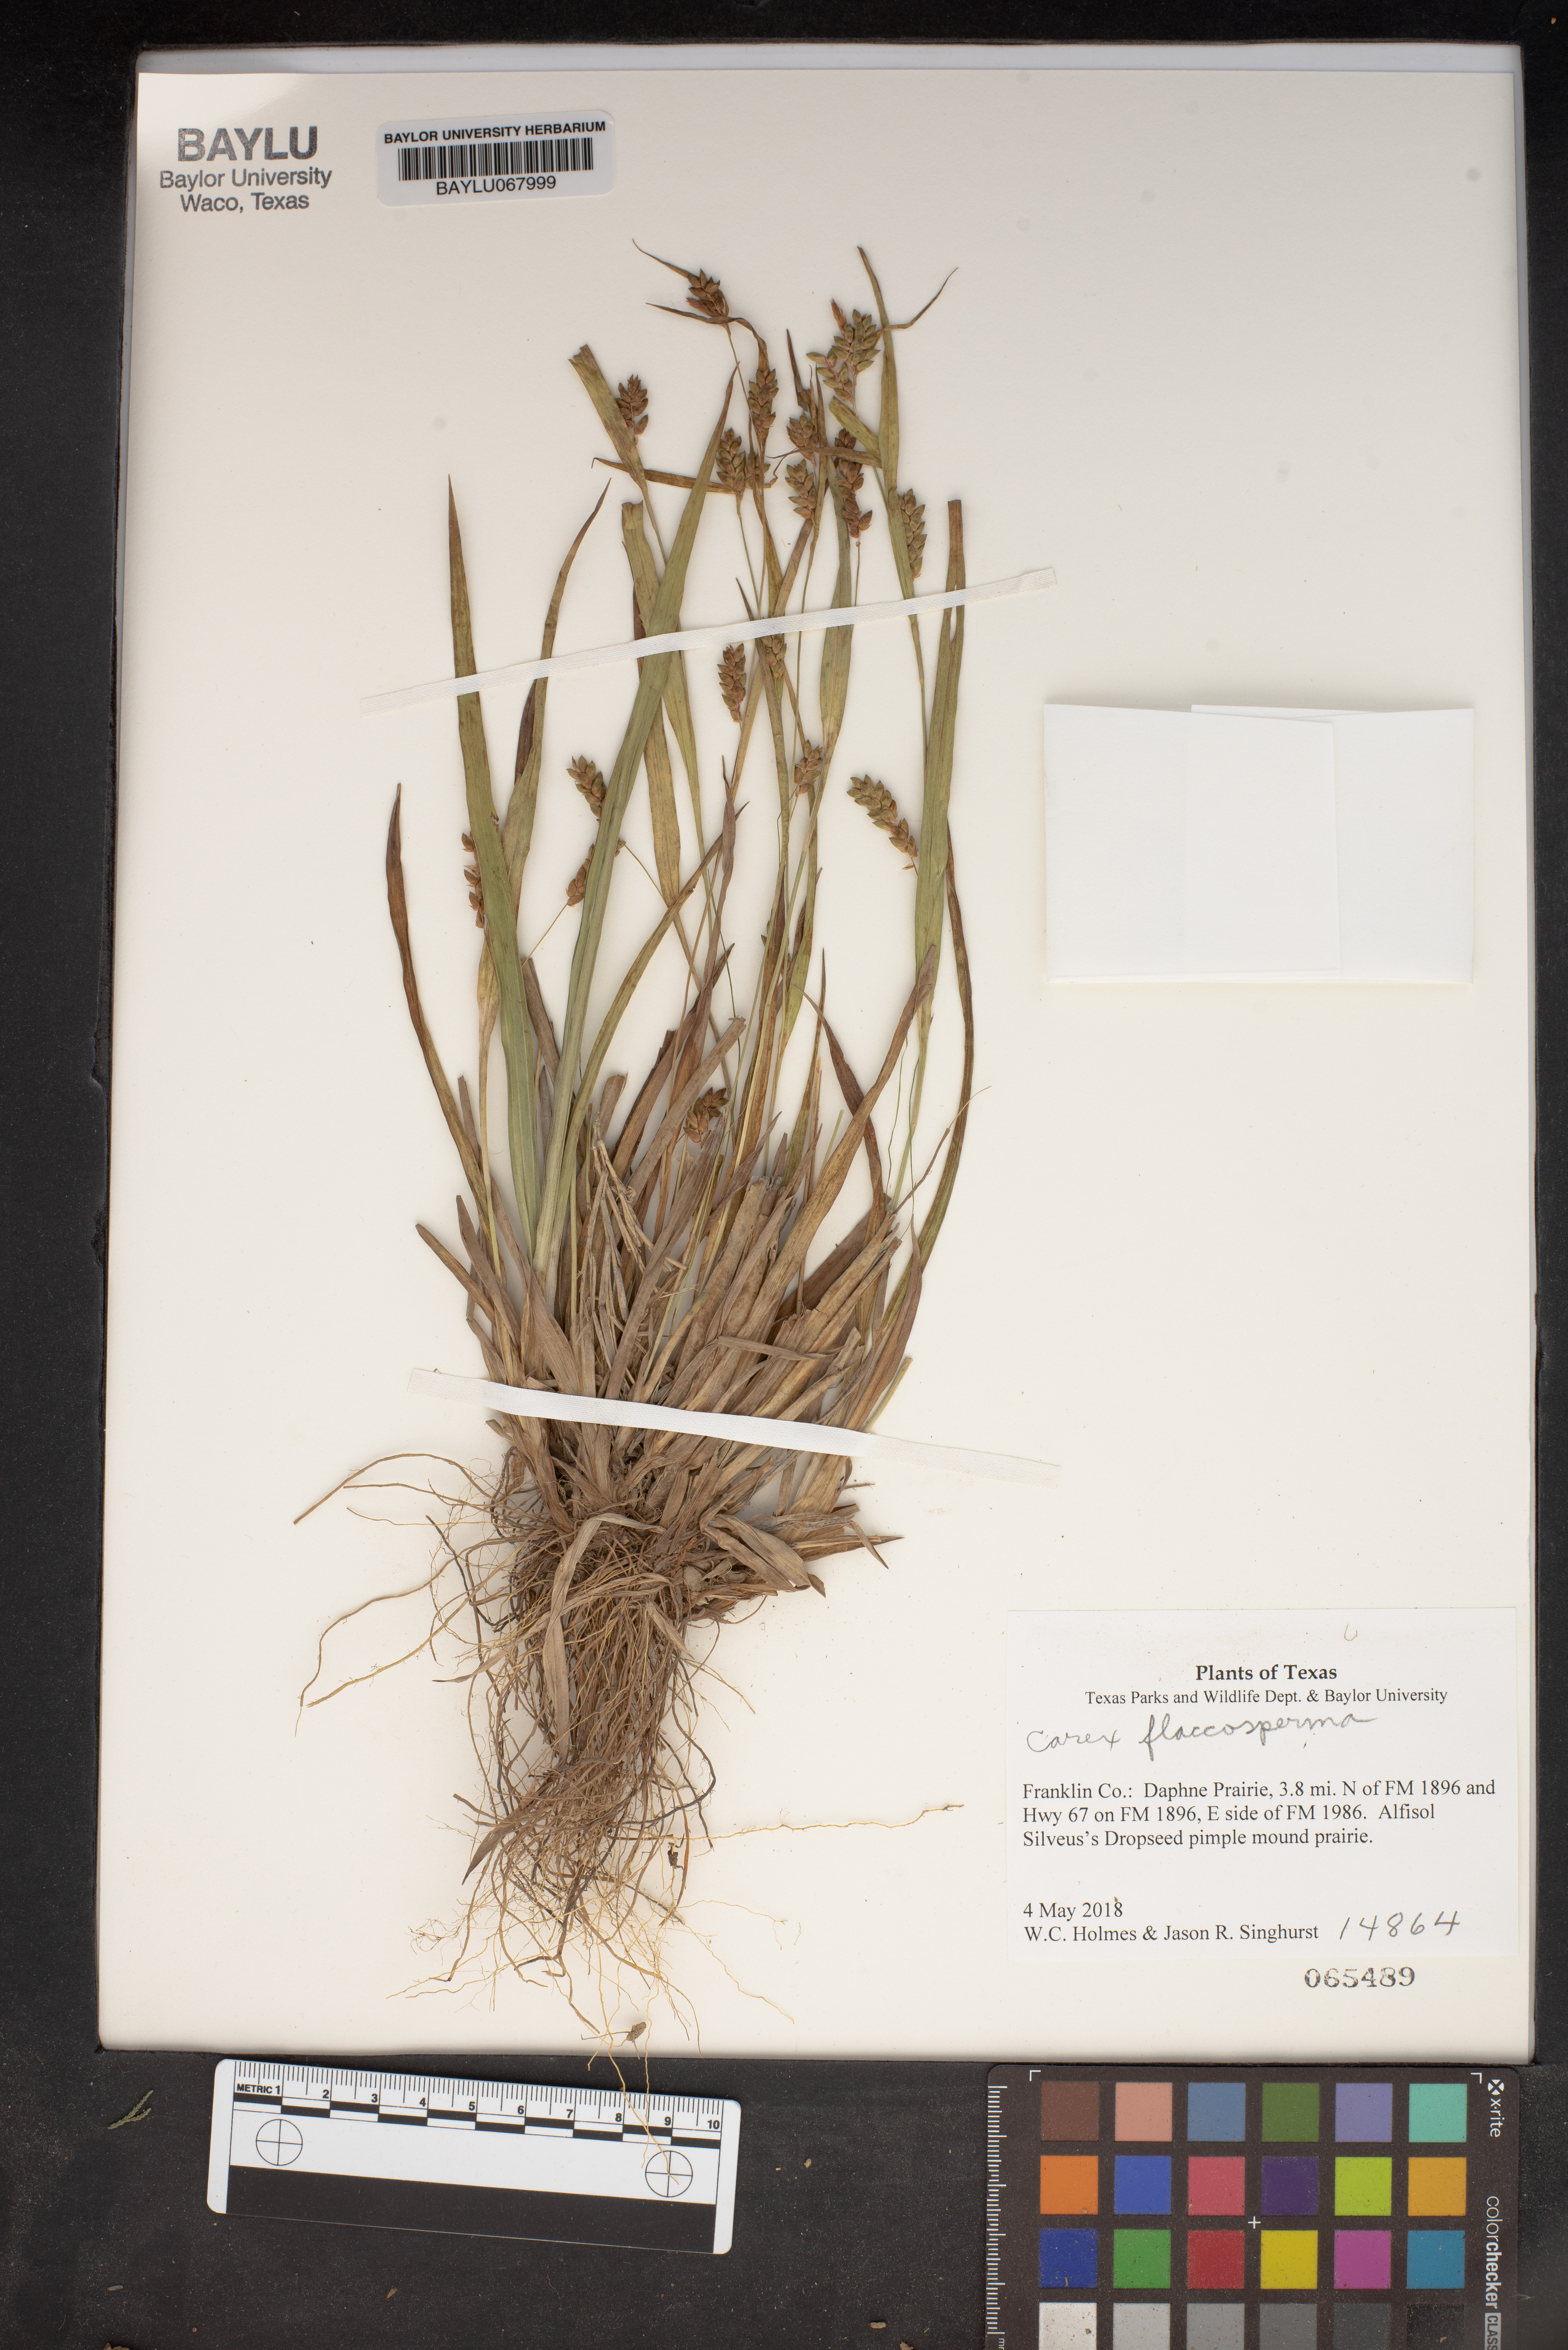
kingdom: Plantae
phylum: Tracheophyta
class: Liliopsida
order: Poales
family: Cyperaceae
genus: Carex
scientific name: Carex flaccosperma
